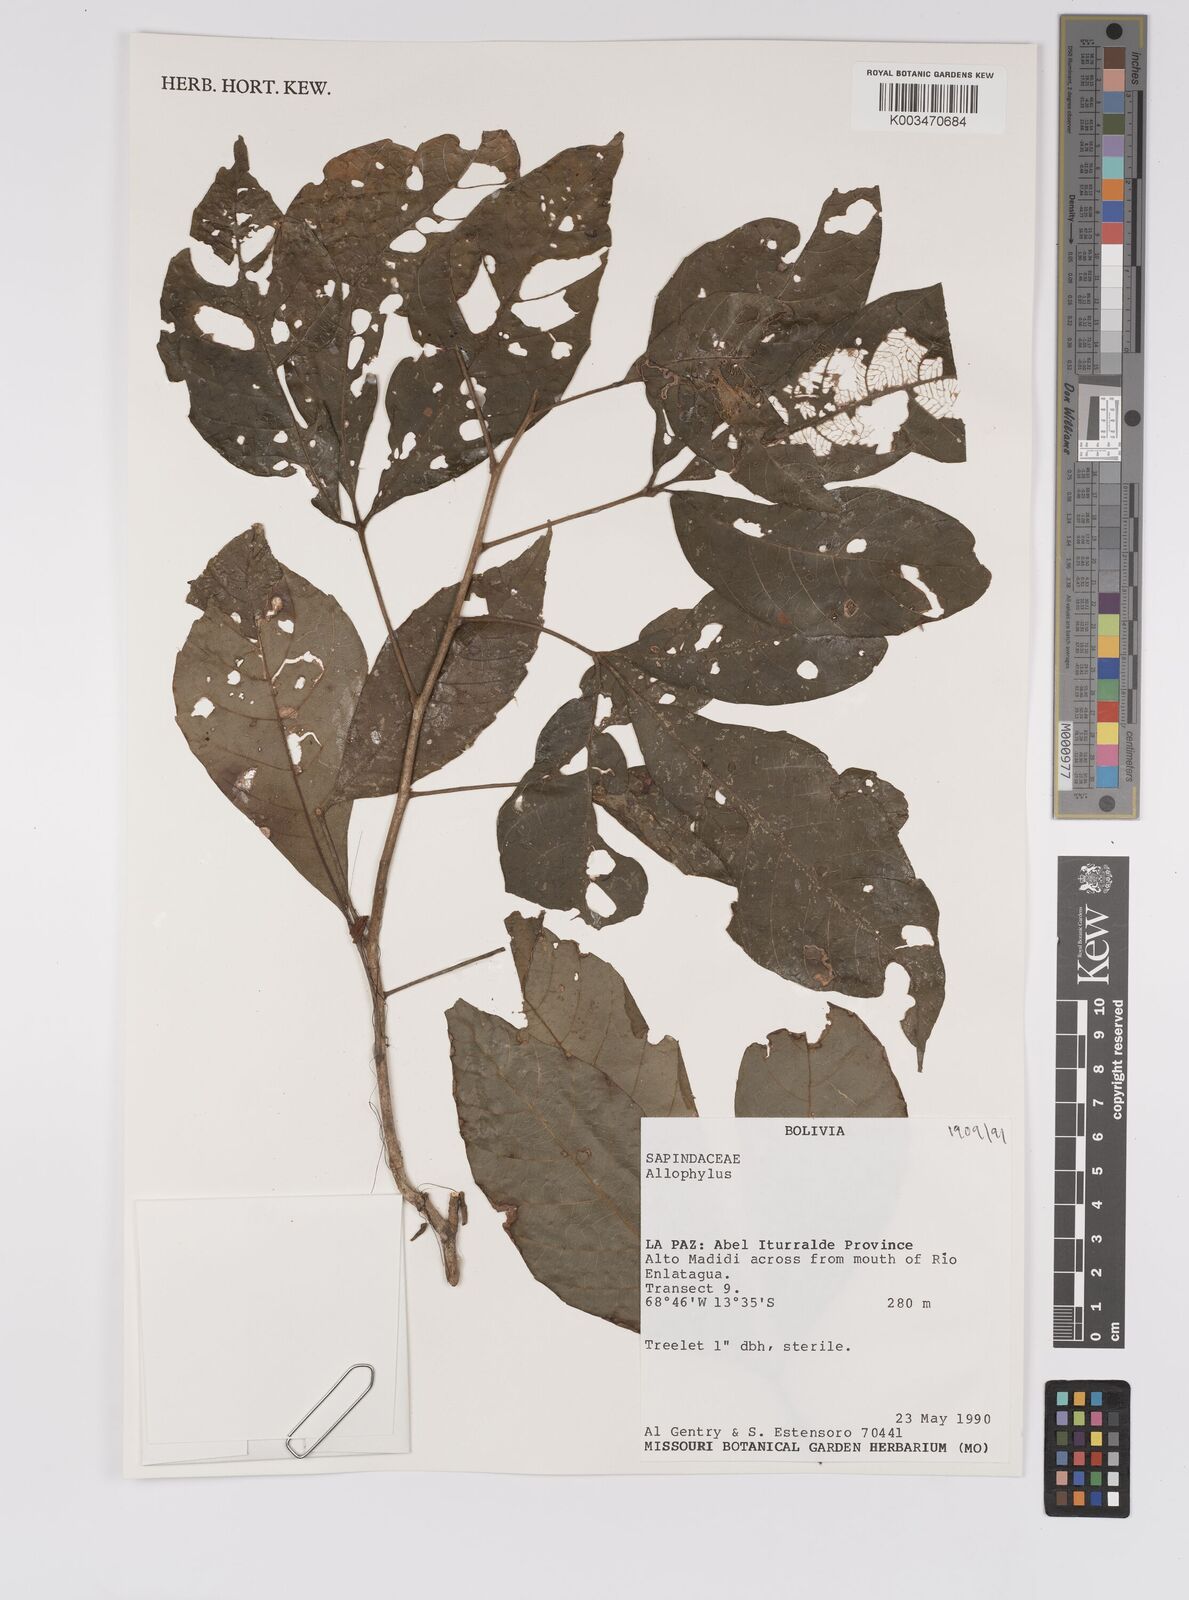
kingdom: Plantae
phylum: Tracheophyta
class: Magnoliopsida
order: Sapindales
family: Sapindaceae
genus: Allophylus
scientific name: Allophylus
